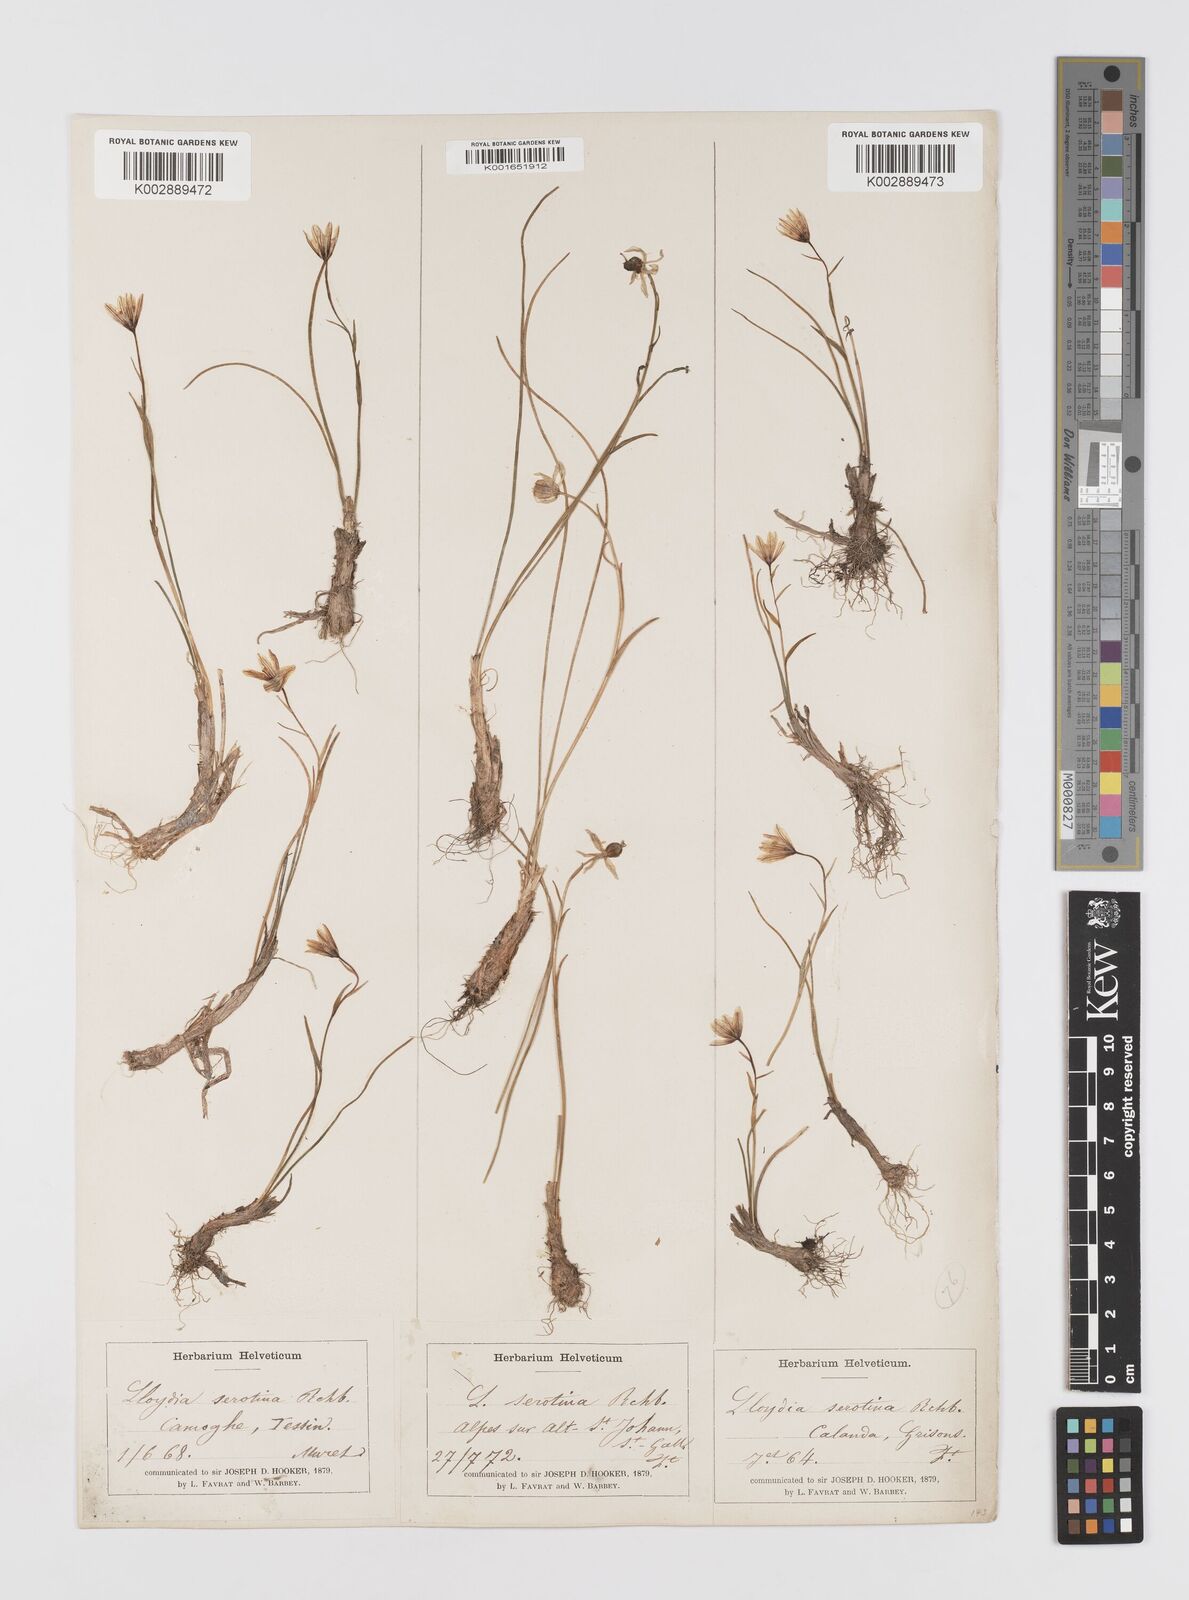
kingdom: Plantae
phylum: Tracheophyta
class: Liliopsida
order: Liliales
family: Liliaceae
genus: Gagea
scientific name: Gagea
